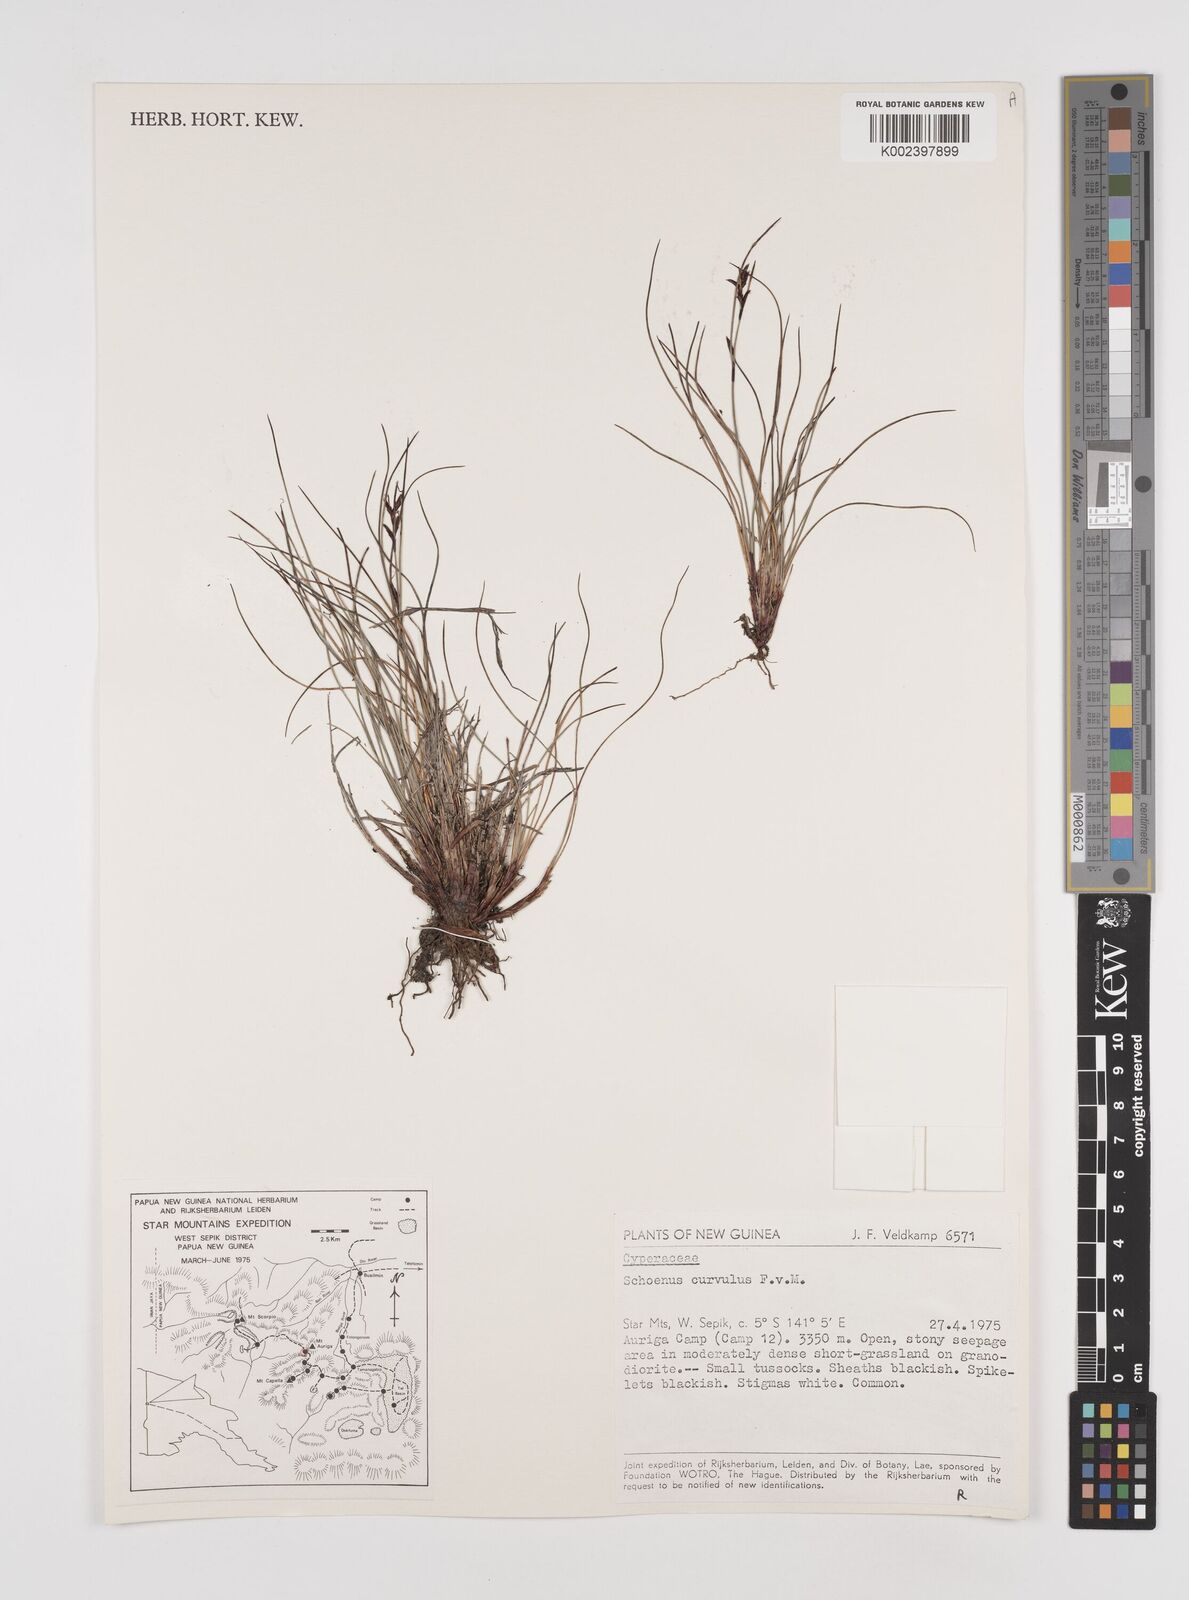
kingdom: Plantae
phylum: Tracheophyta
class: Liliopsida
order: Poales
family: Cyperaceae
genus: Schoenus
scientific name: Schoenus curvulus
